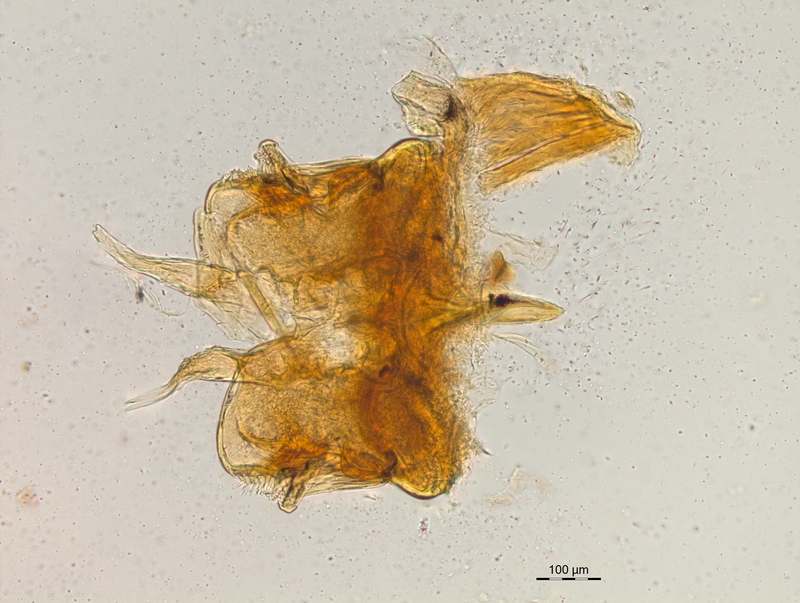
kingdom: Animalia
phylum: Arthropoda
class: Diplopoda
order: Chordeumatida
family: Craspedosomatidae
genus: Craspedosoma
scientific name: Craspedosoma rawlinsii
